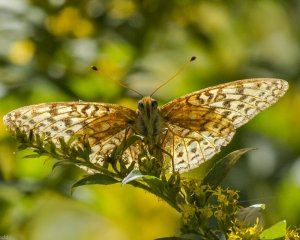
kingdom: Animalia
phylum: Arthropoda
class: Insecta
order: Lepidoptera
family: Nymphalidae
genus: Speyeria
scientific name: Speyeria atlantis
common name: Atlantis Fritillary
